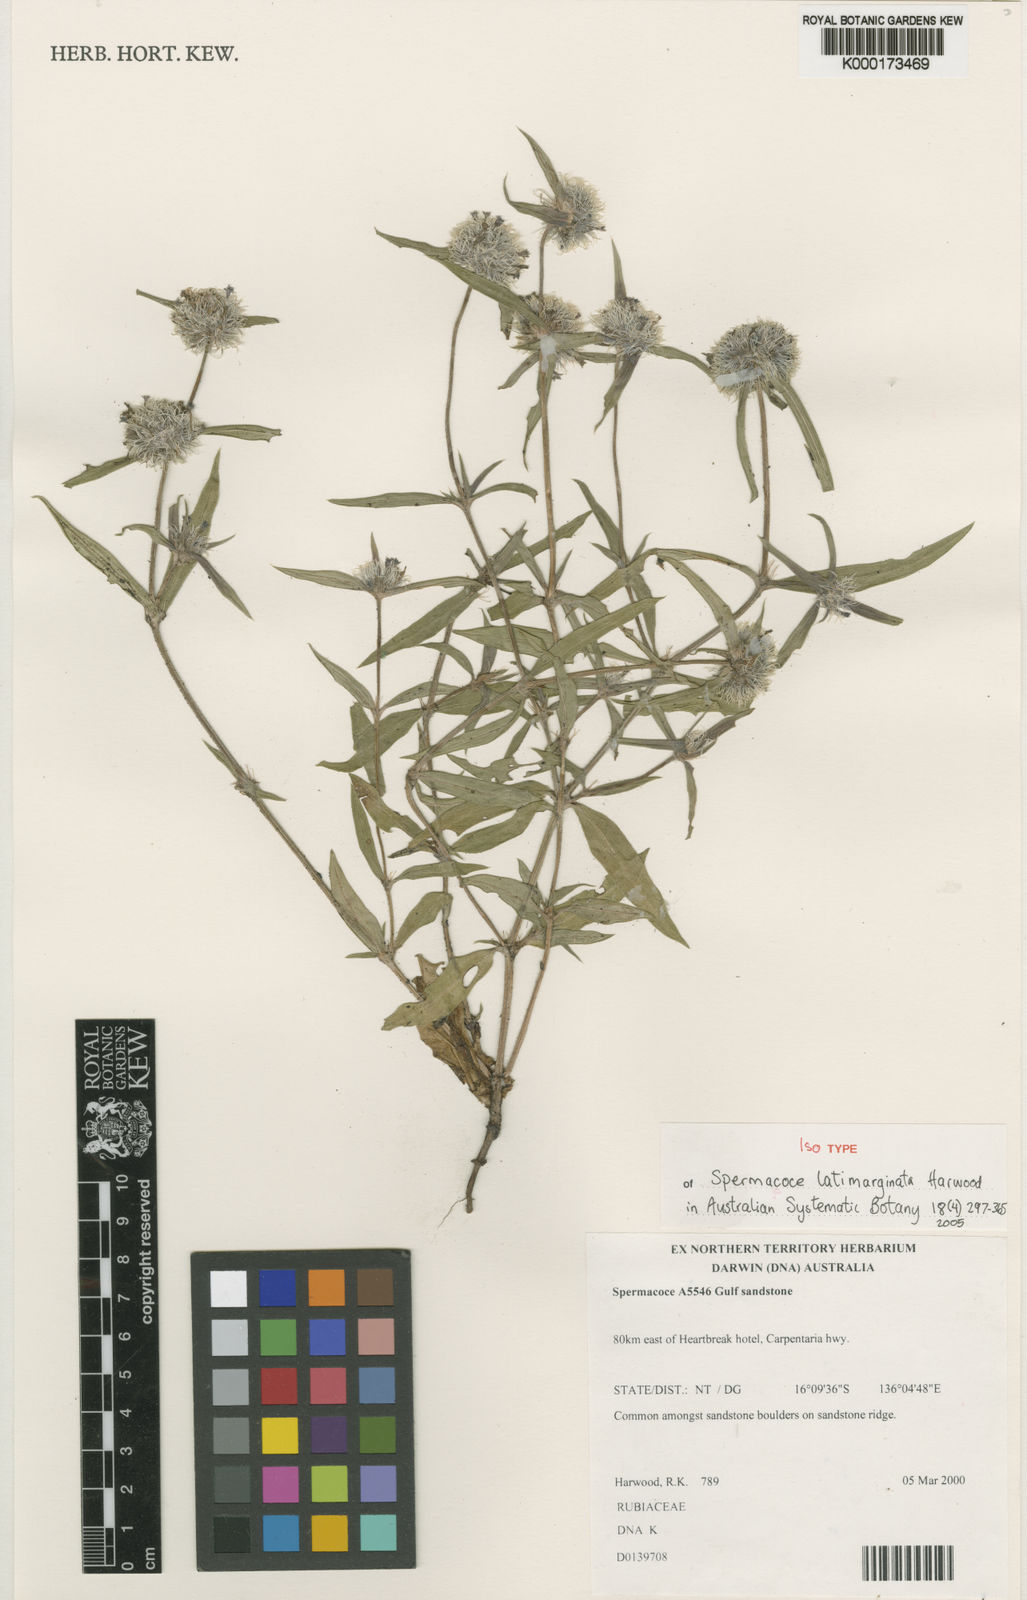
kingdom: Plantae
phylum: Tracheophyta
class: Magnoliopsida
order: Gentianales
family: Rubiaceae
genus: Spermacoce
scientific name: Spermacoce latimarginata
